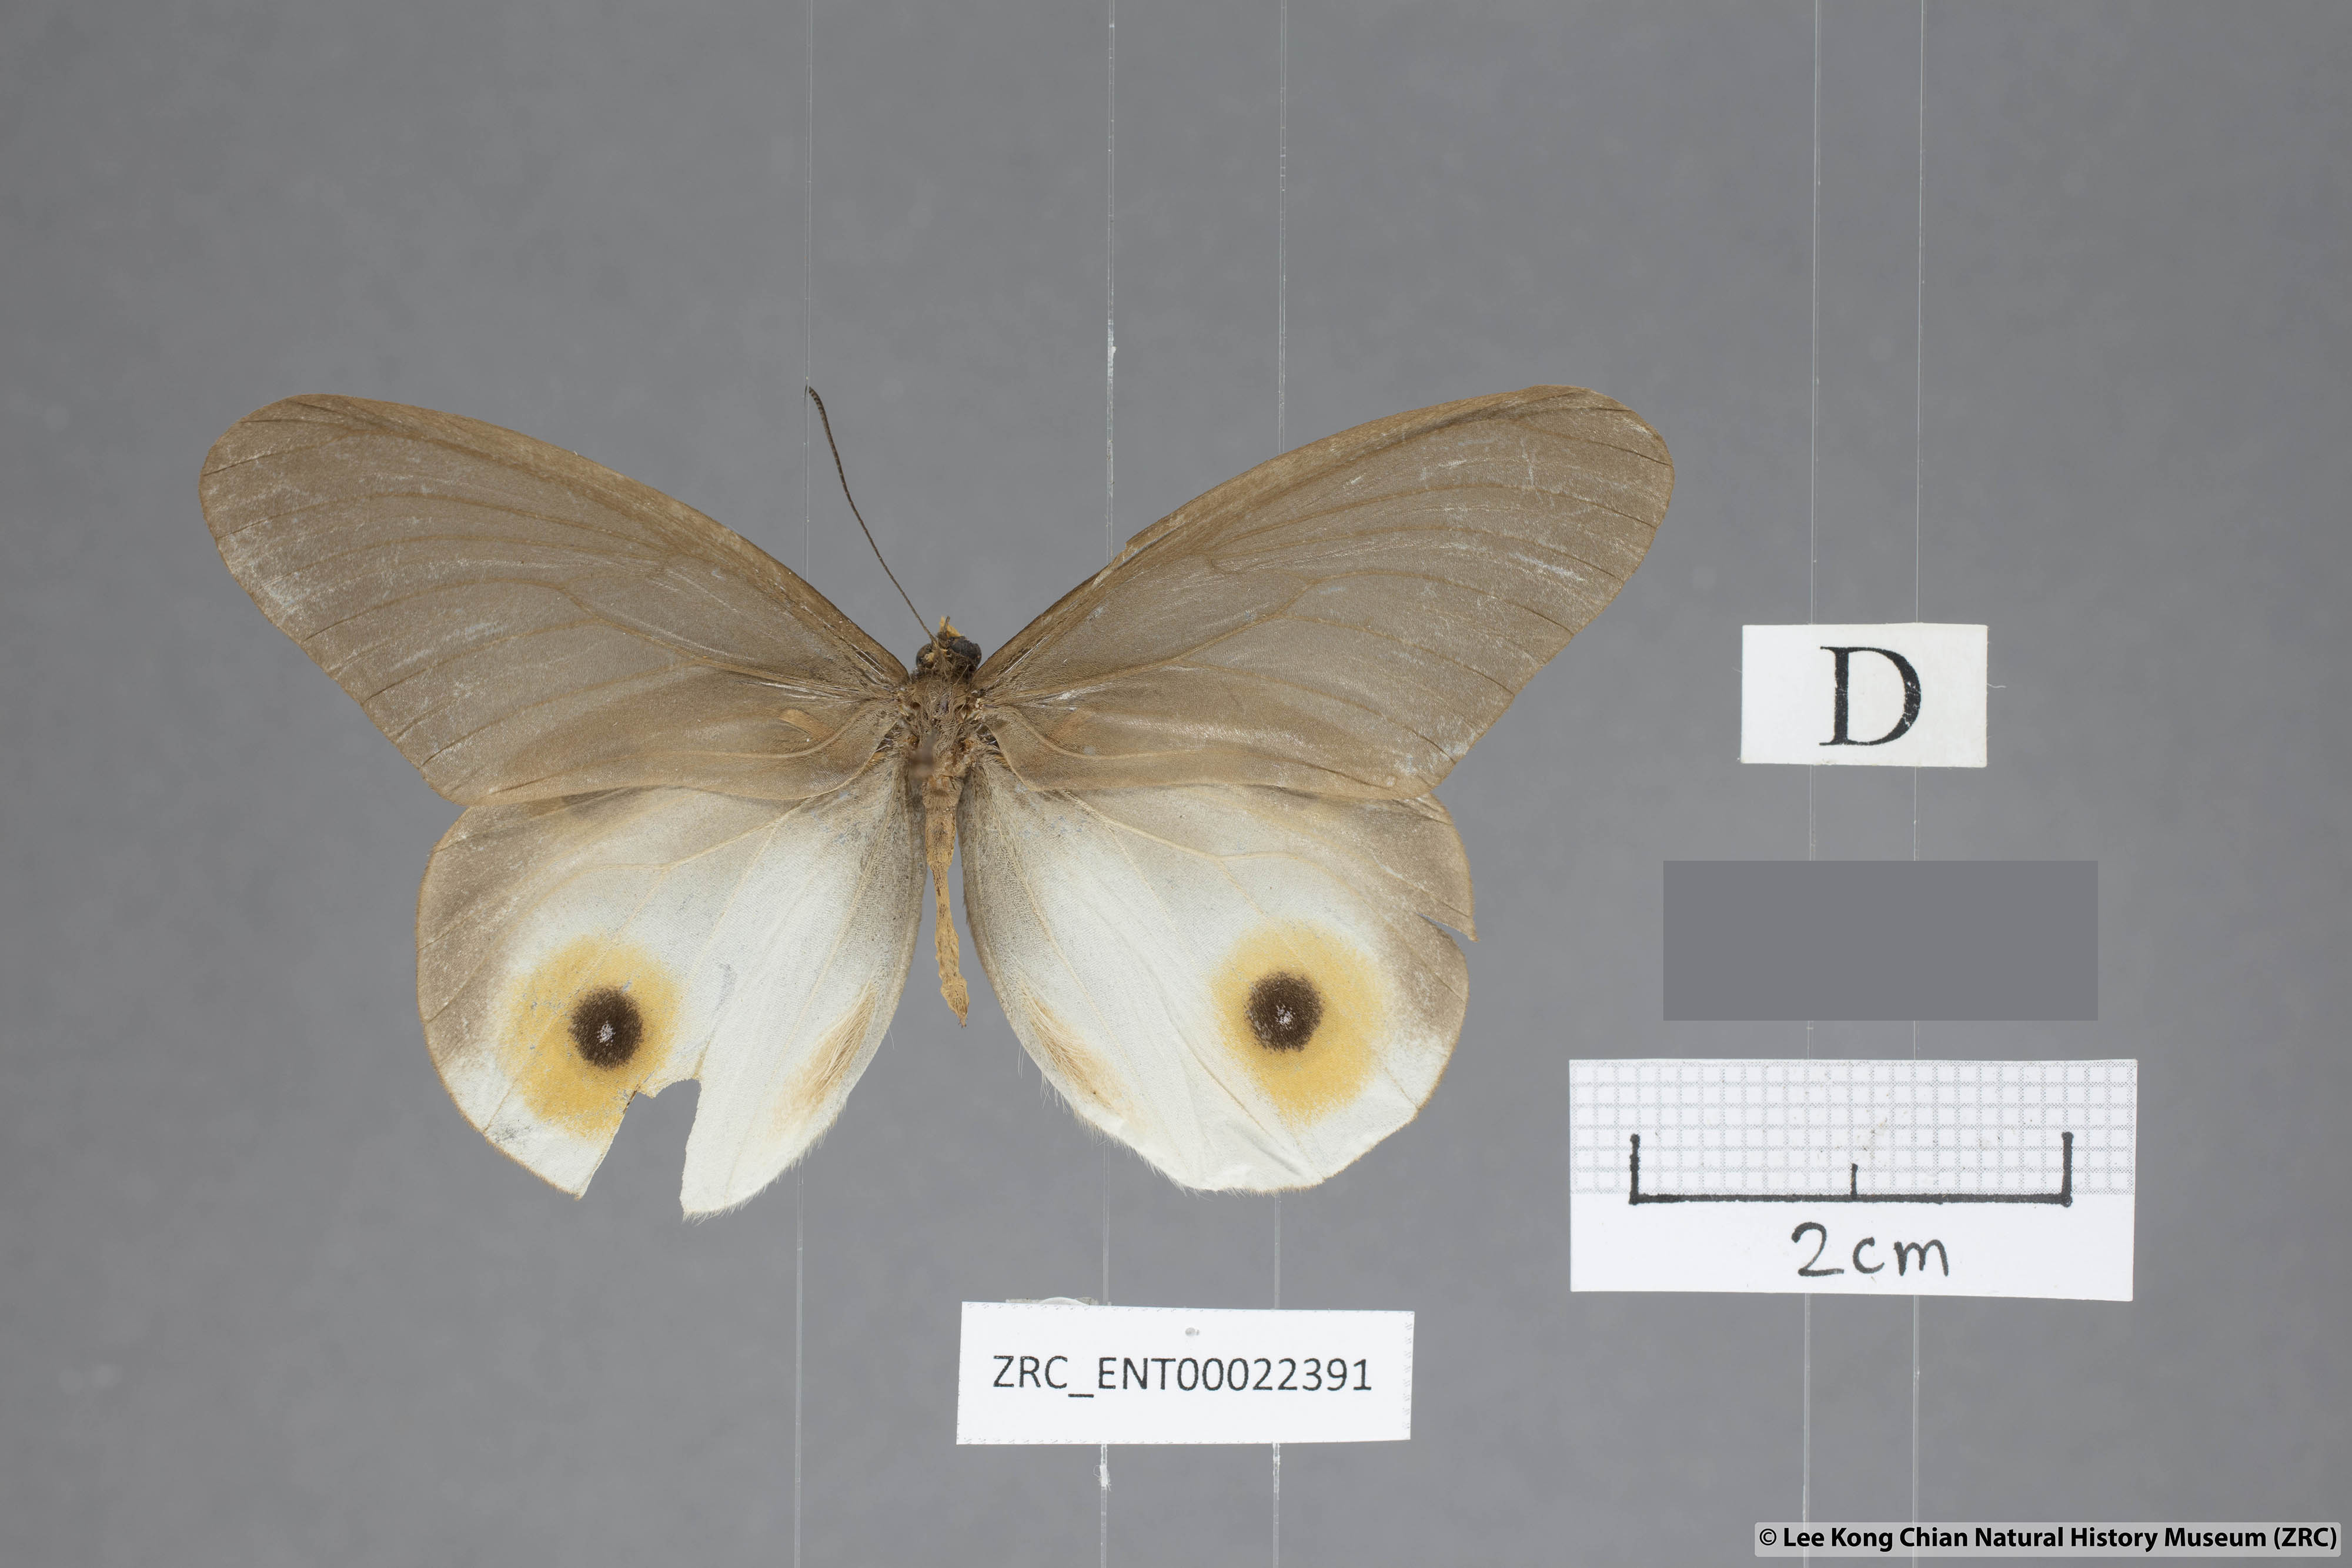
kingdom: Animalia
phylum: Arthropoda
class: Insecta
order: Lepidoptera
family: Nymphalidae
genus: Taenaris
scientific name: Taenaris horsfieldii
